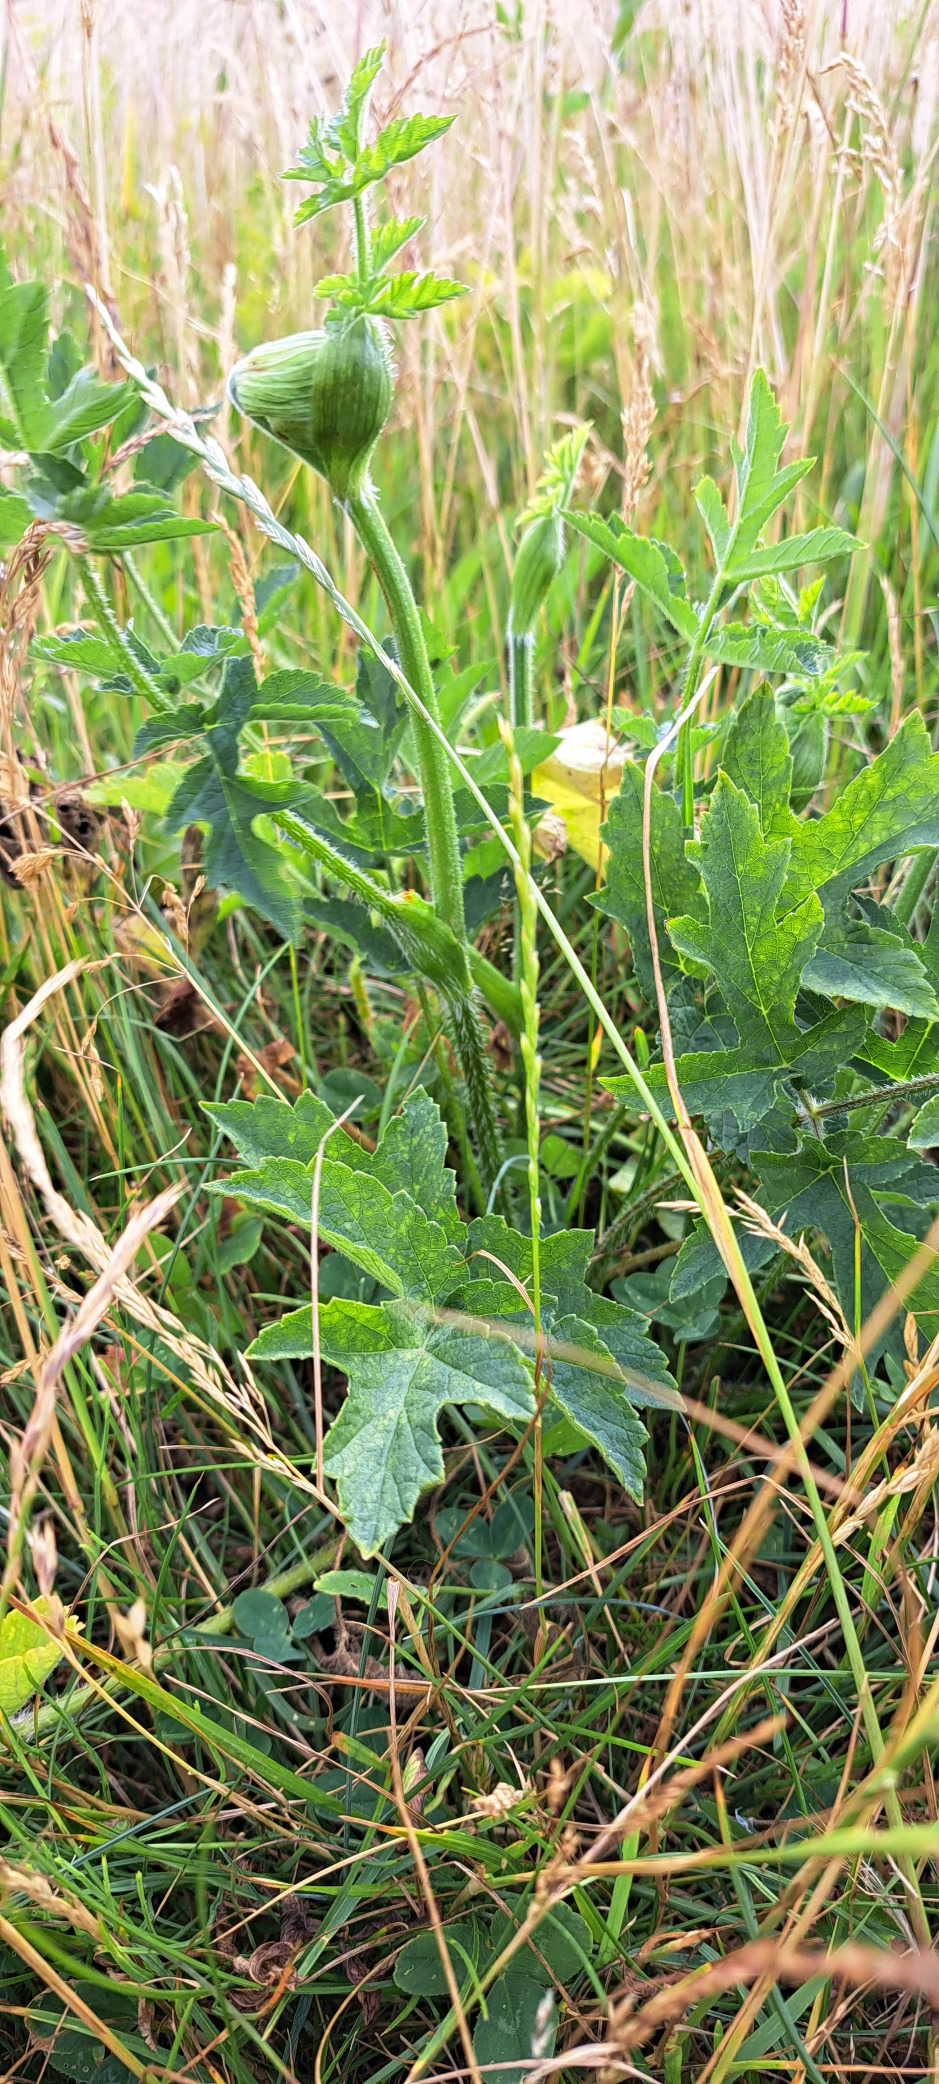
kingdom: Plantae
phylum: Tracheophyta
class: Magnoliopsida
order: Apiales
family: Apiaceae
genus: Heracleum
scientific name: Heracleum sphondylium
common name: Almindelig bjørneklo
